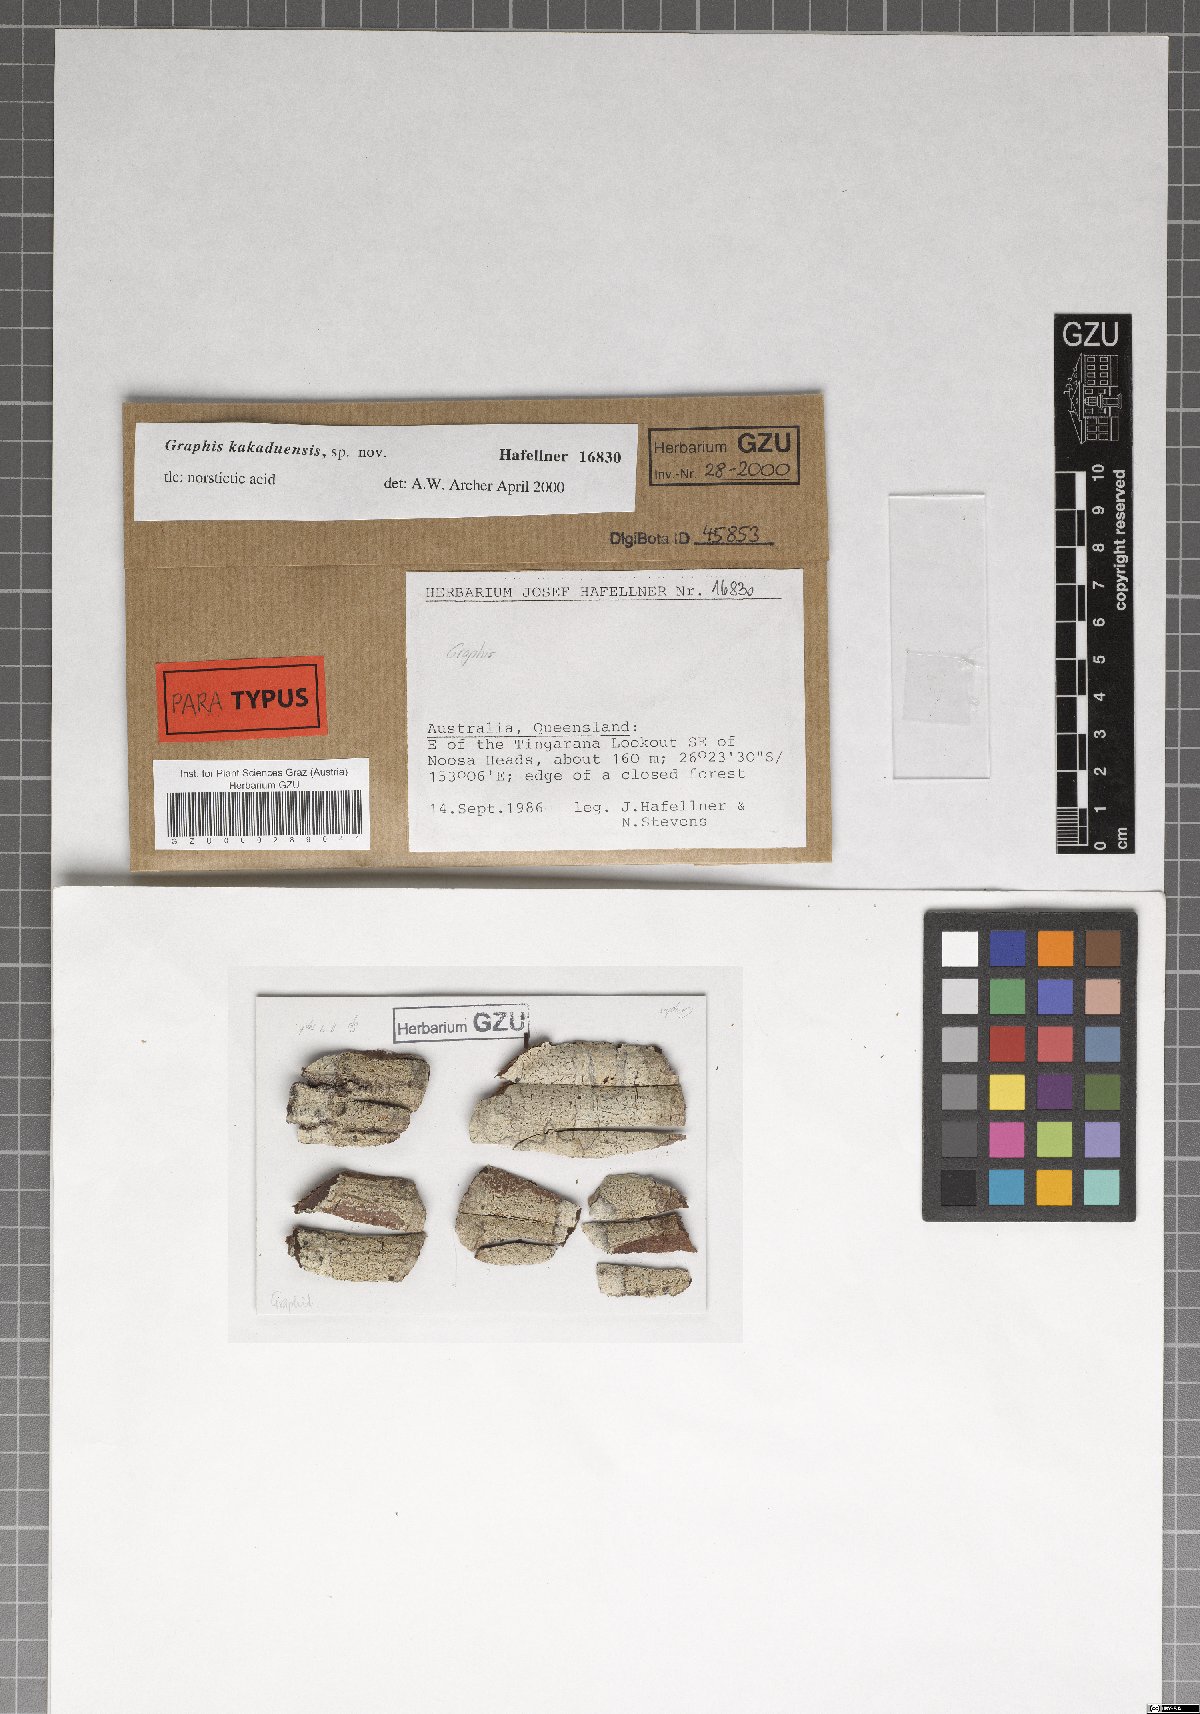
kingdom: Fungi
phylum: Ascomycota
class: Lecanoromycetes
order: Ostropales
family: Graphidaceae
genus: Graphis
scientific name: Graphis kakaduensis
